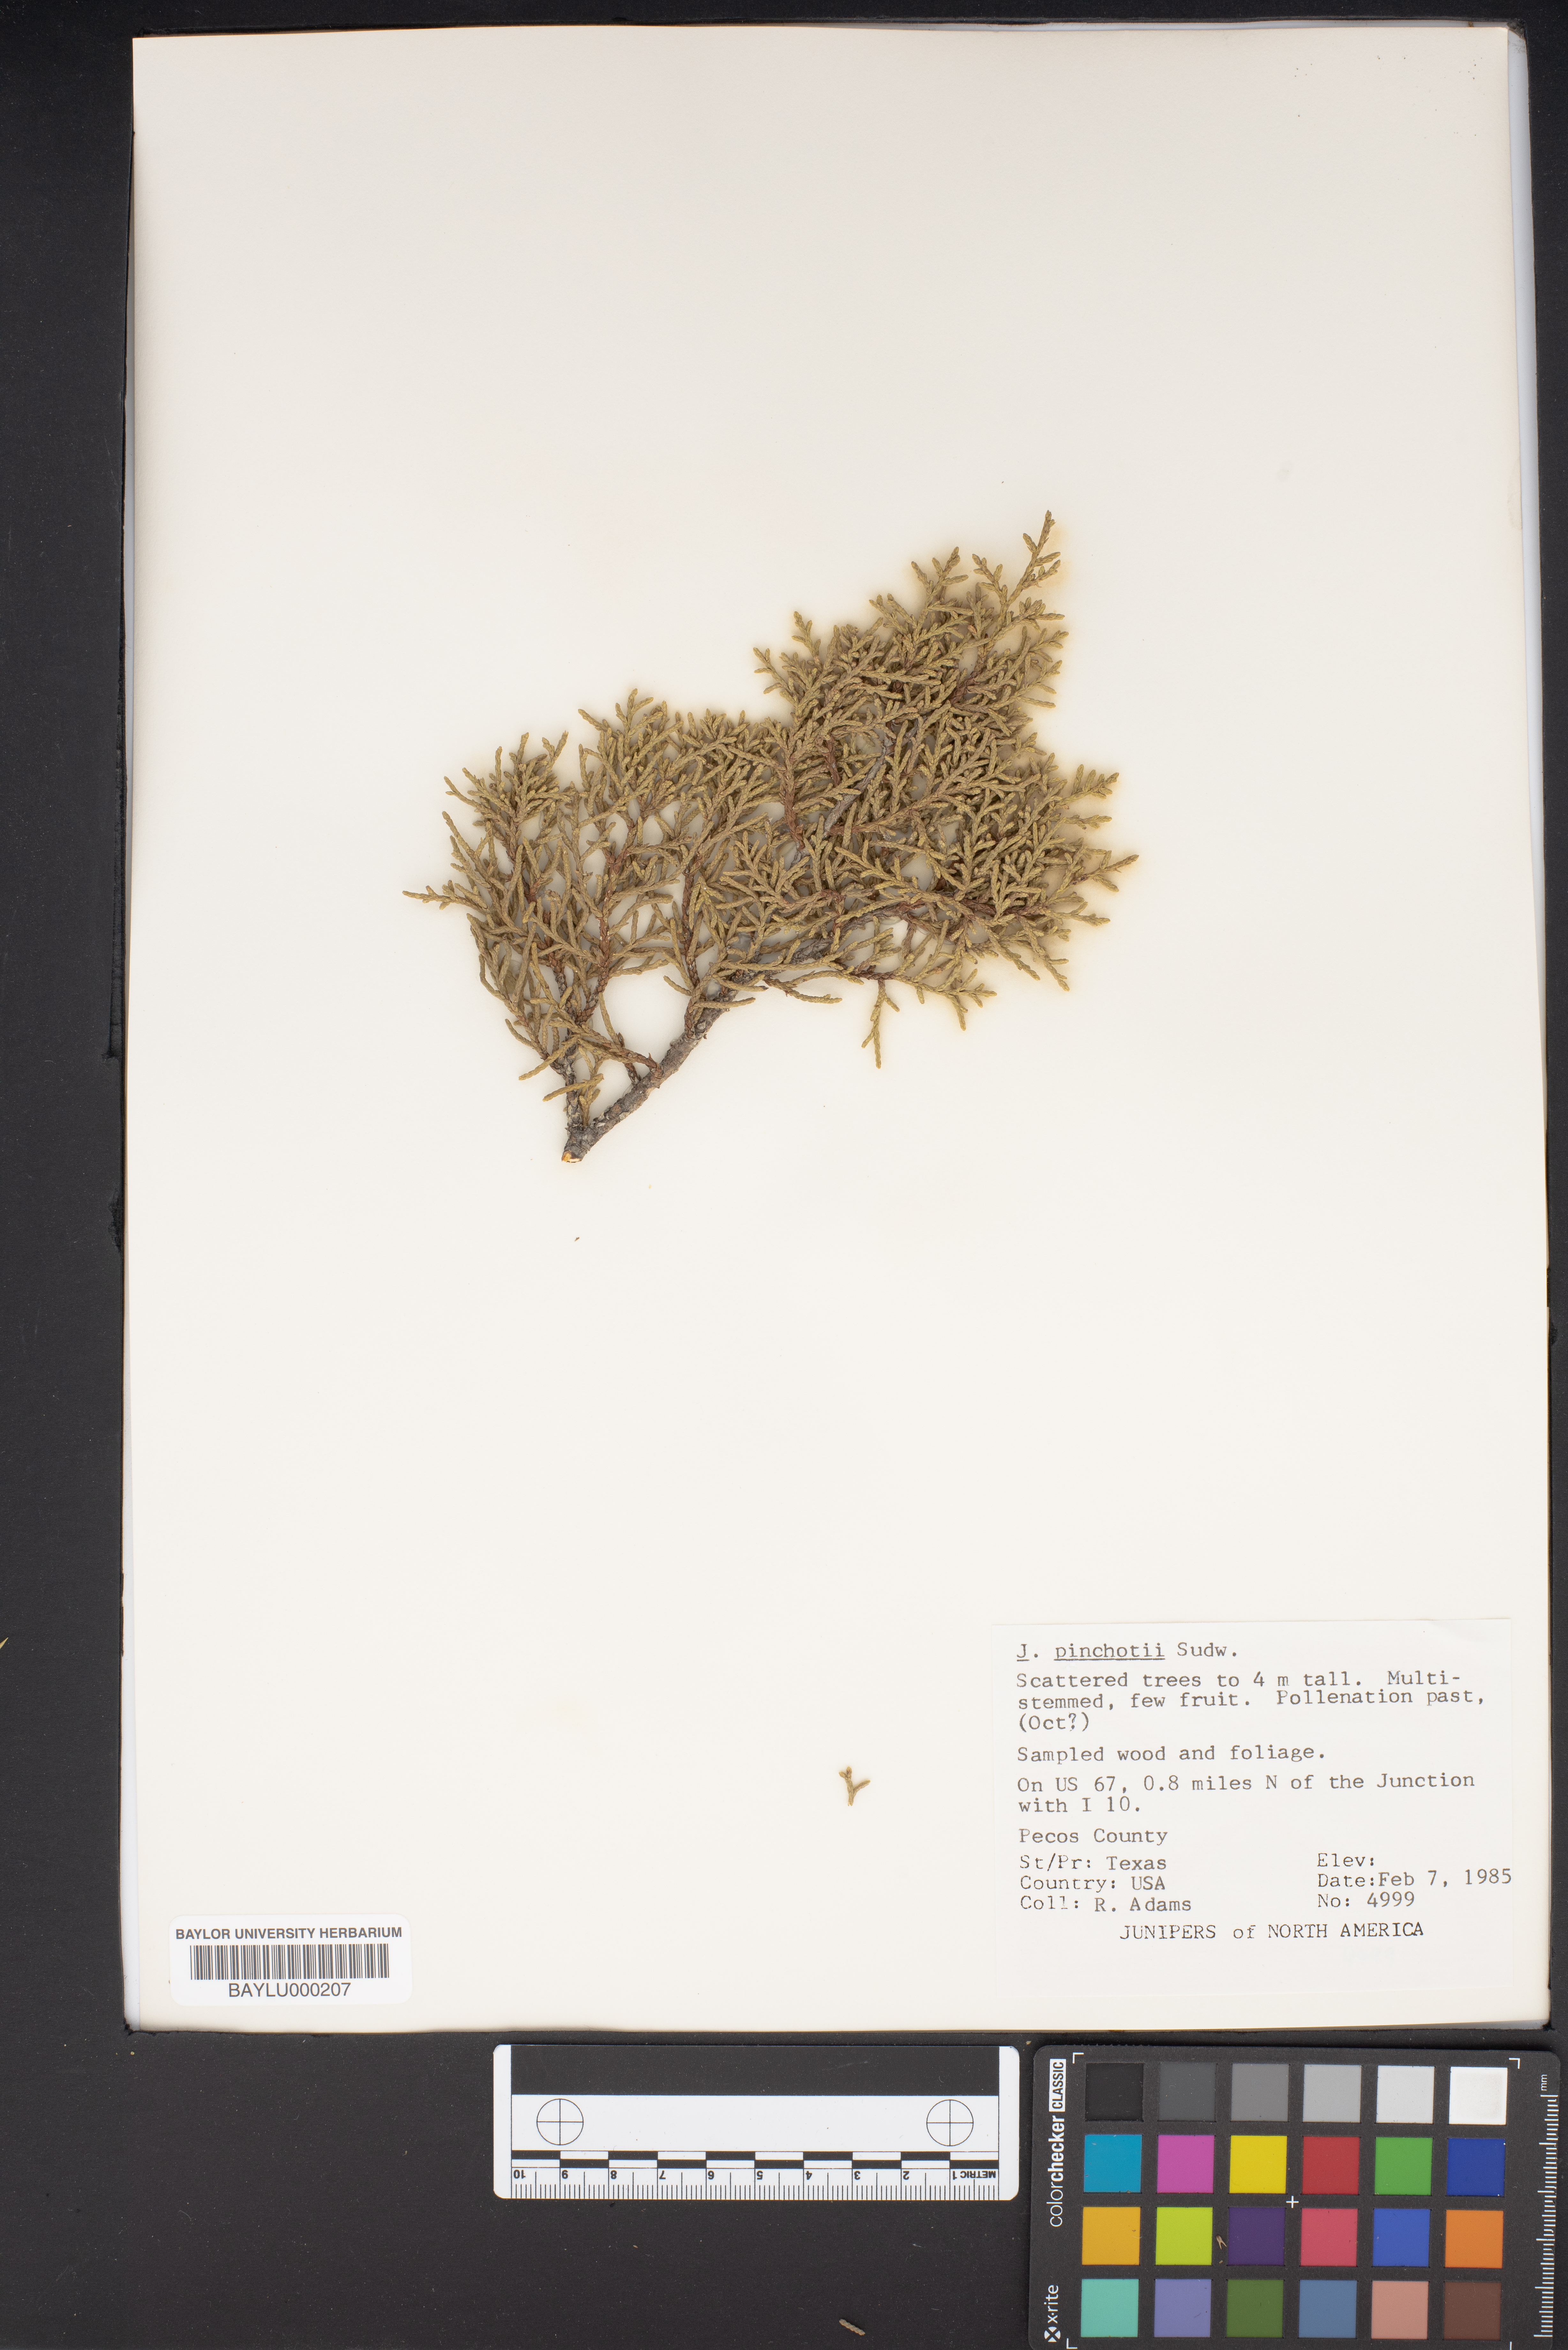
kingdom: Plantae
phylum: Tracheophyta
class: Pinopsida
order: Pinales
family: Cupressaceae
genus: Juniperus
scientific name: Juniperus pinchotii
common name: Pinchot juniper
